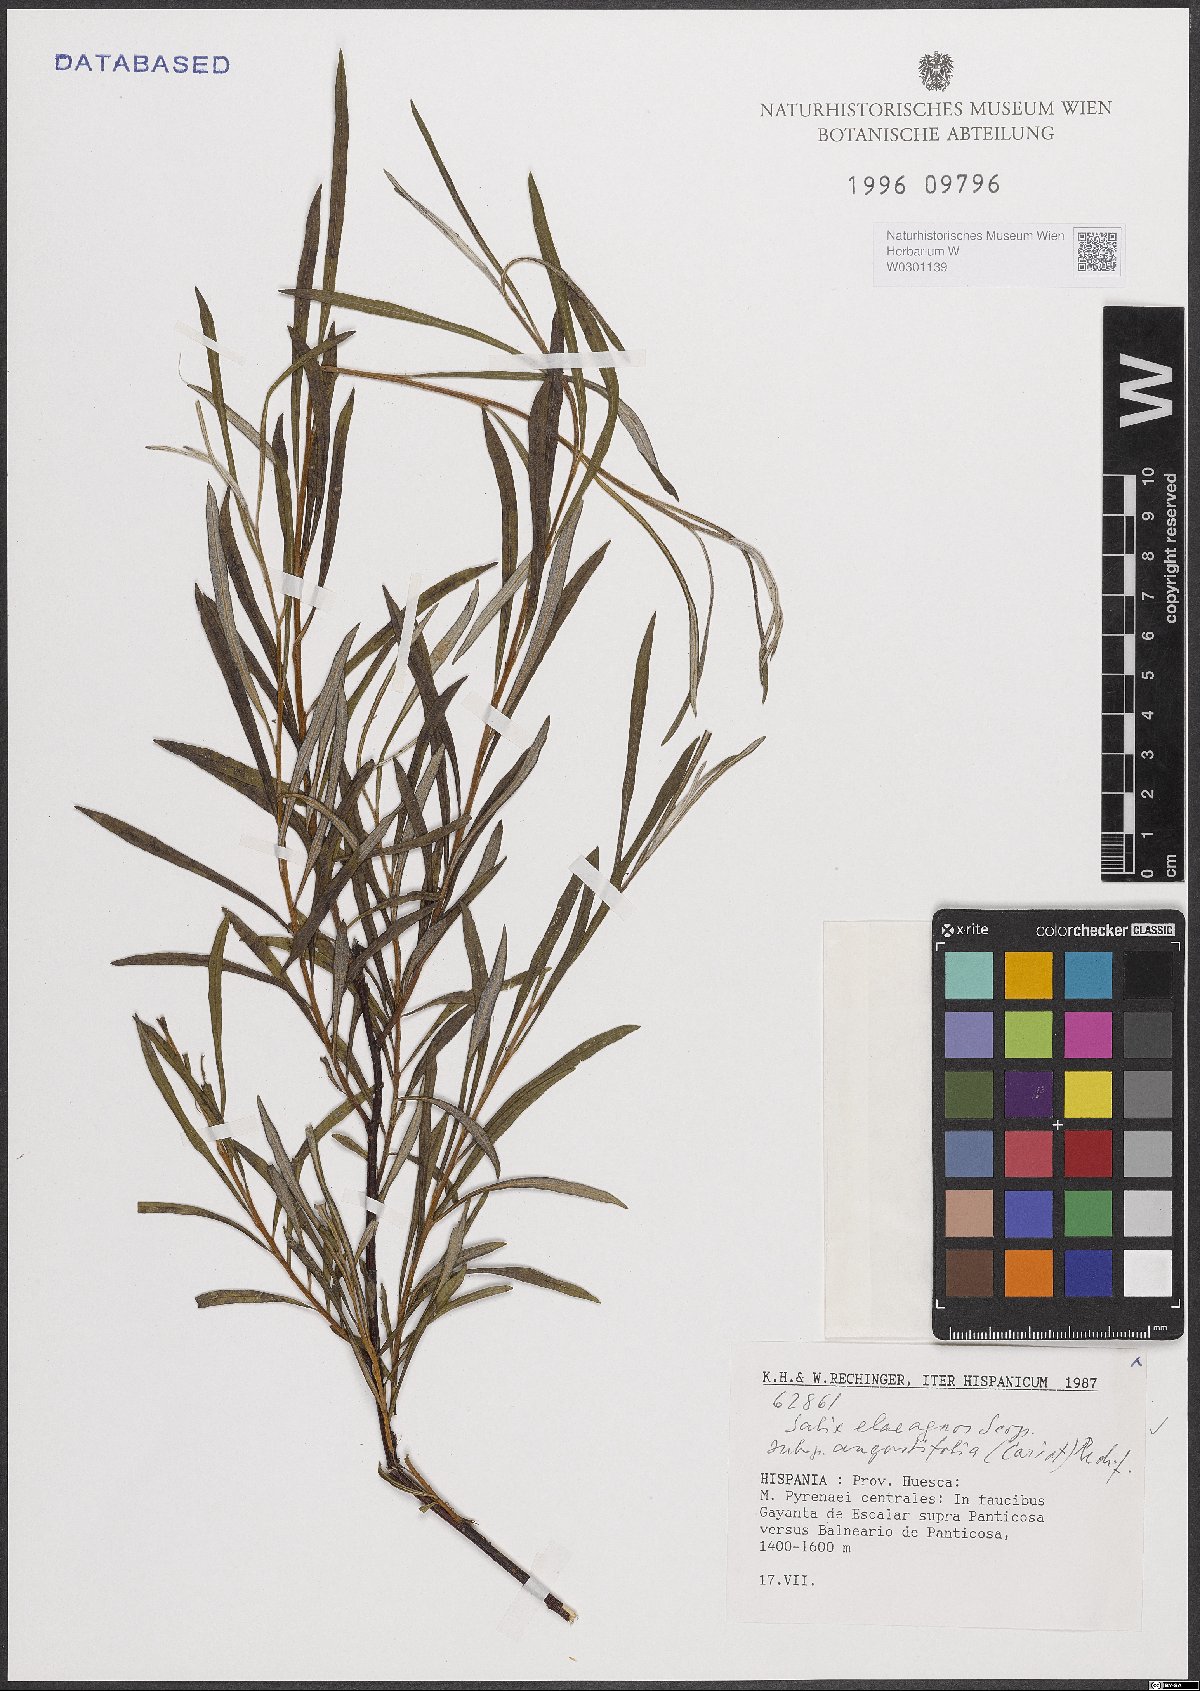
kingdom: Plantae
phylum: Tracheophyta
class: Magnoliopsida
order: Malpighiales
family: Salicaceae
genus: Salix
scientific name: Salix eleagnos
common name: Elaeagnus willow
